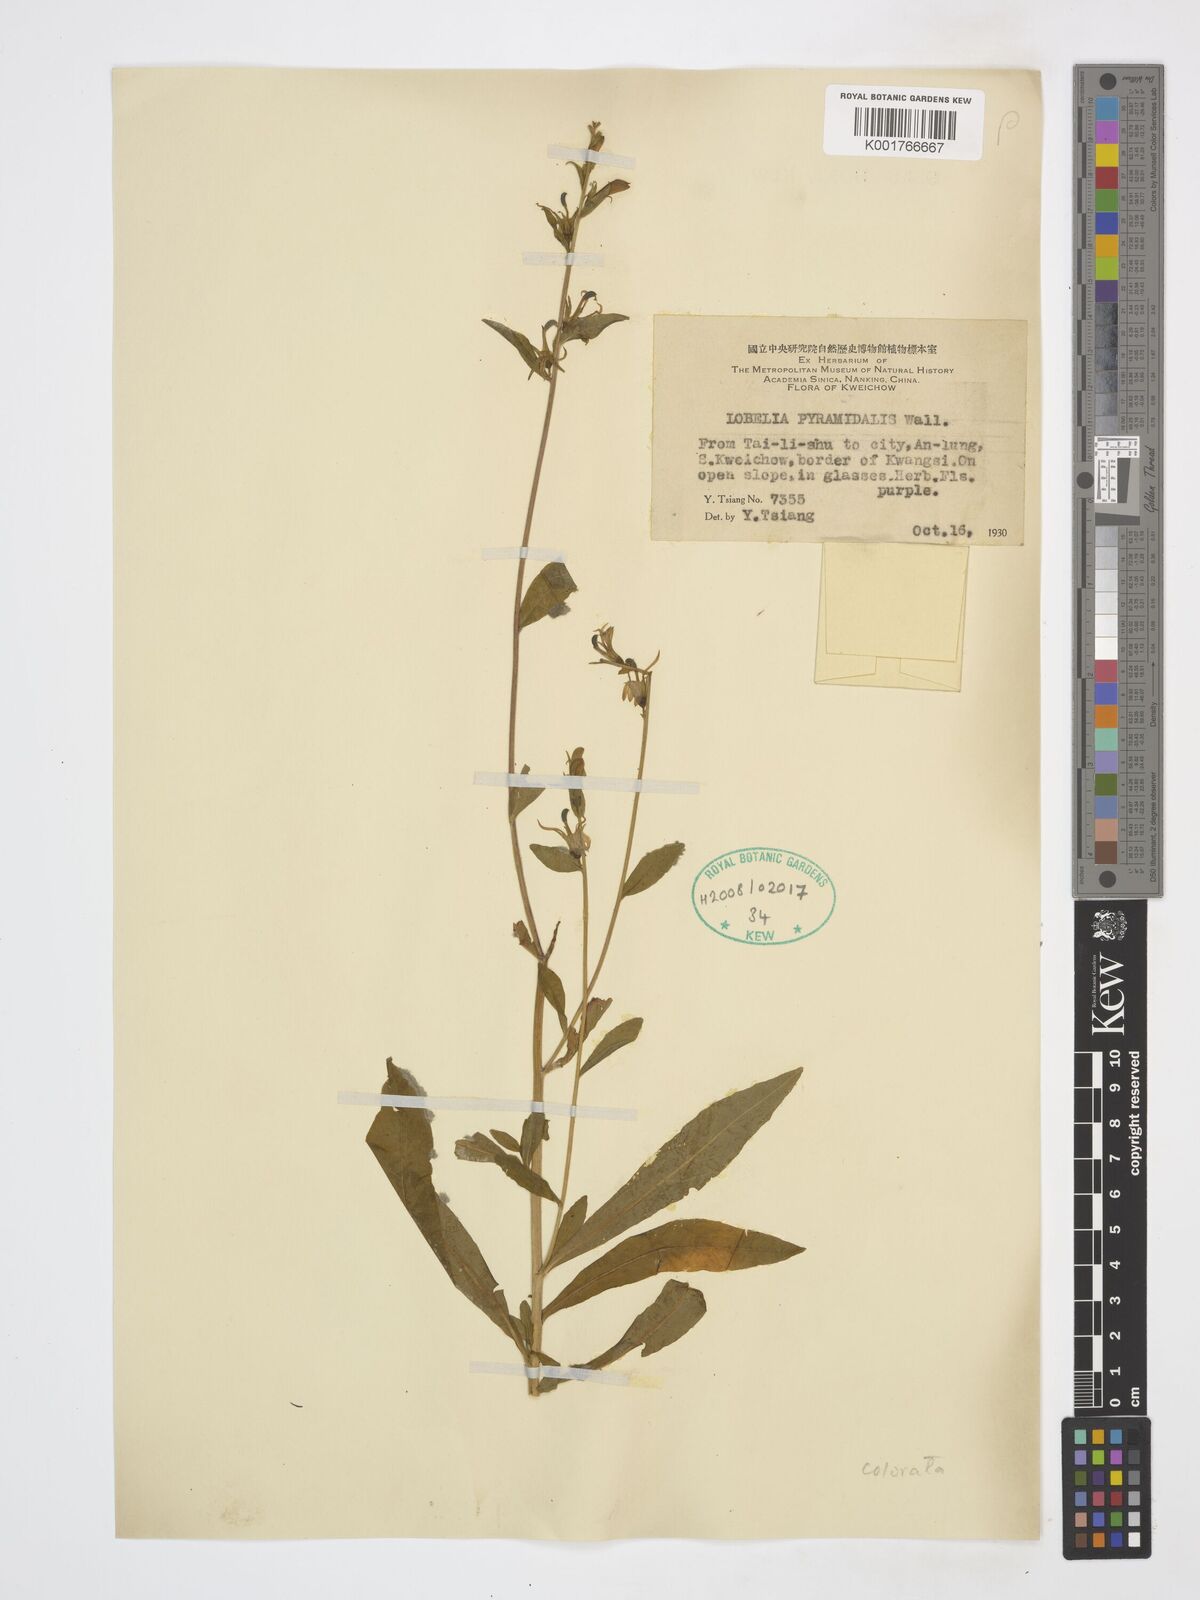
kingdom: Plantae
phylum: Tracheophyta
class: Magnoliopsida
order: Asterales
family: Campanulaceae
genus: Lobelia
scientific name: Lobelia pyramidalis
